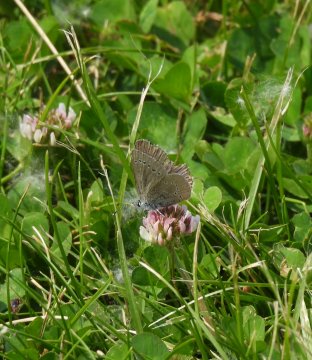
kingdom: Animalia
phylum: Arthropoda
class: Insecta
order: Lepidoptera
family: Lycaenidae
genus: Glaucopsyche
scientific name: Glaucopsyche lygdamus
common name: Silvery Blue
